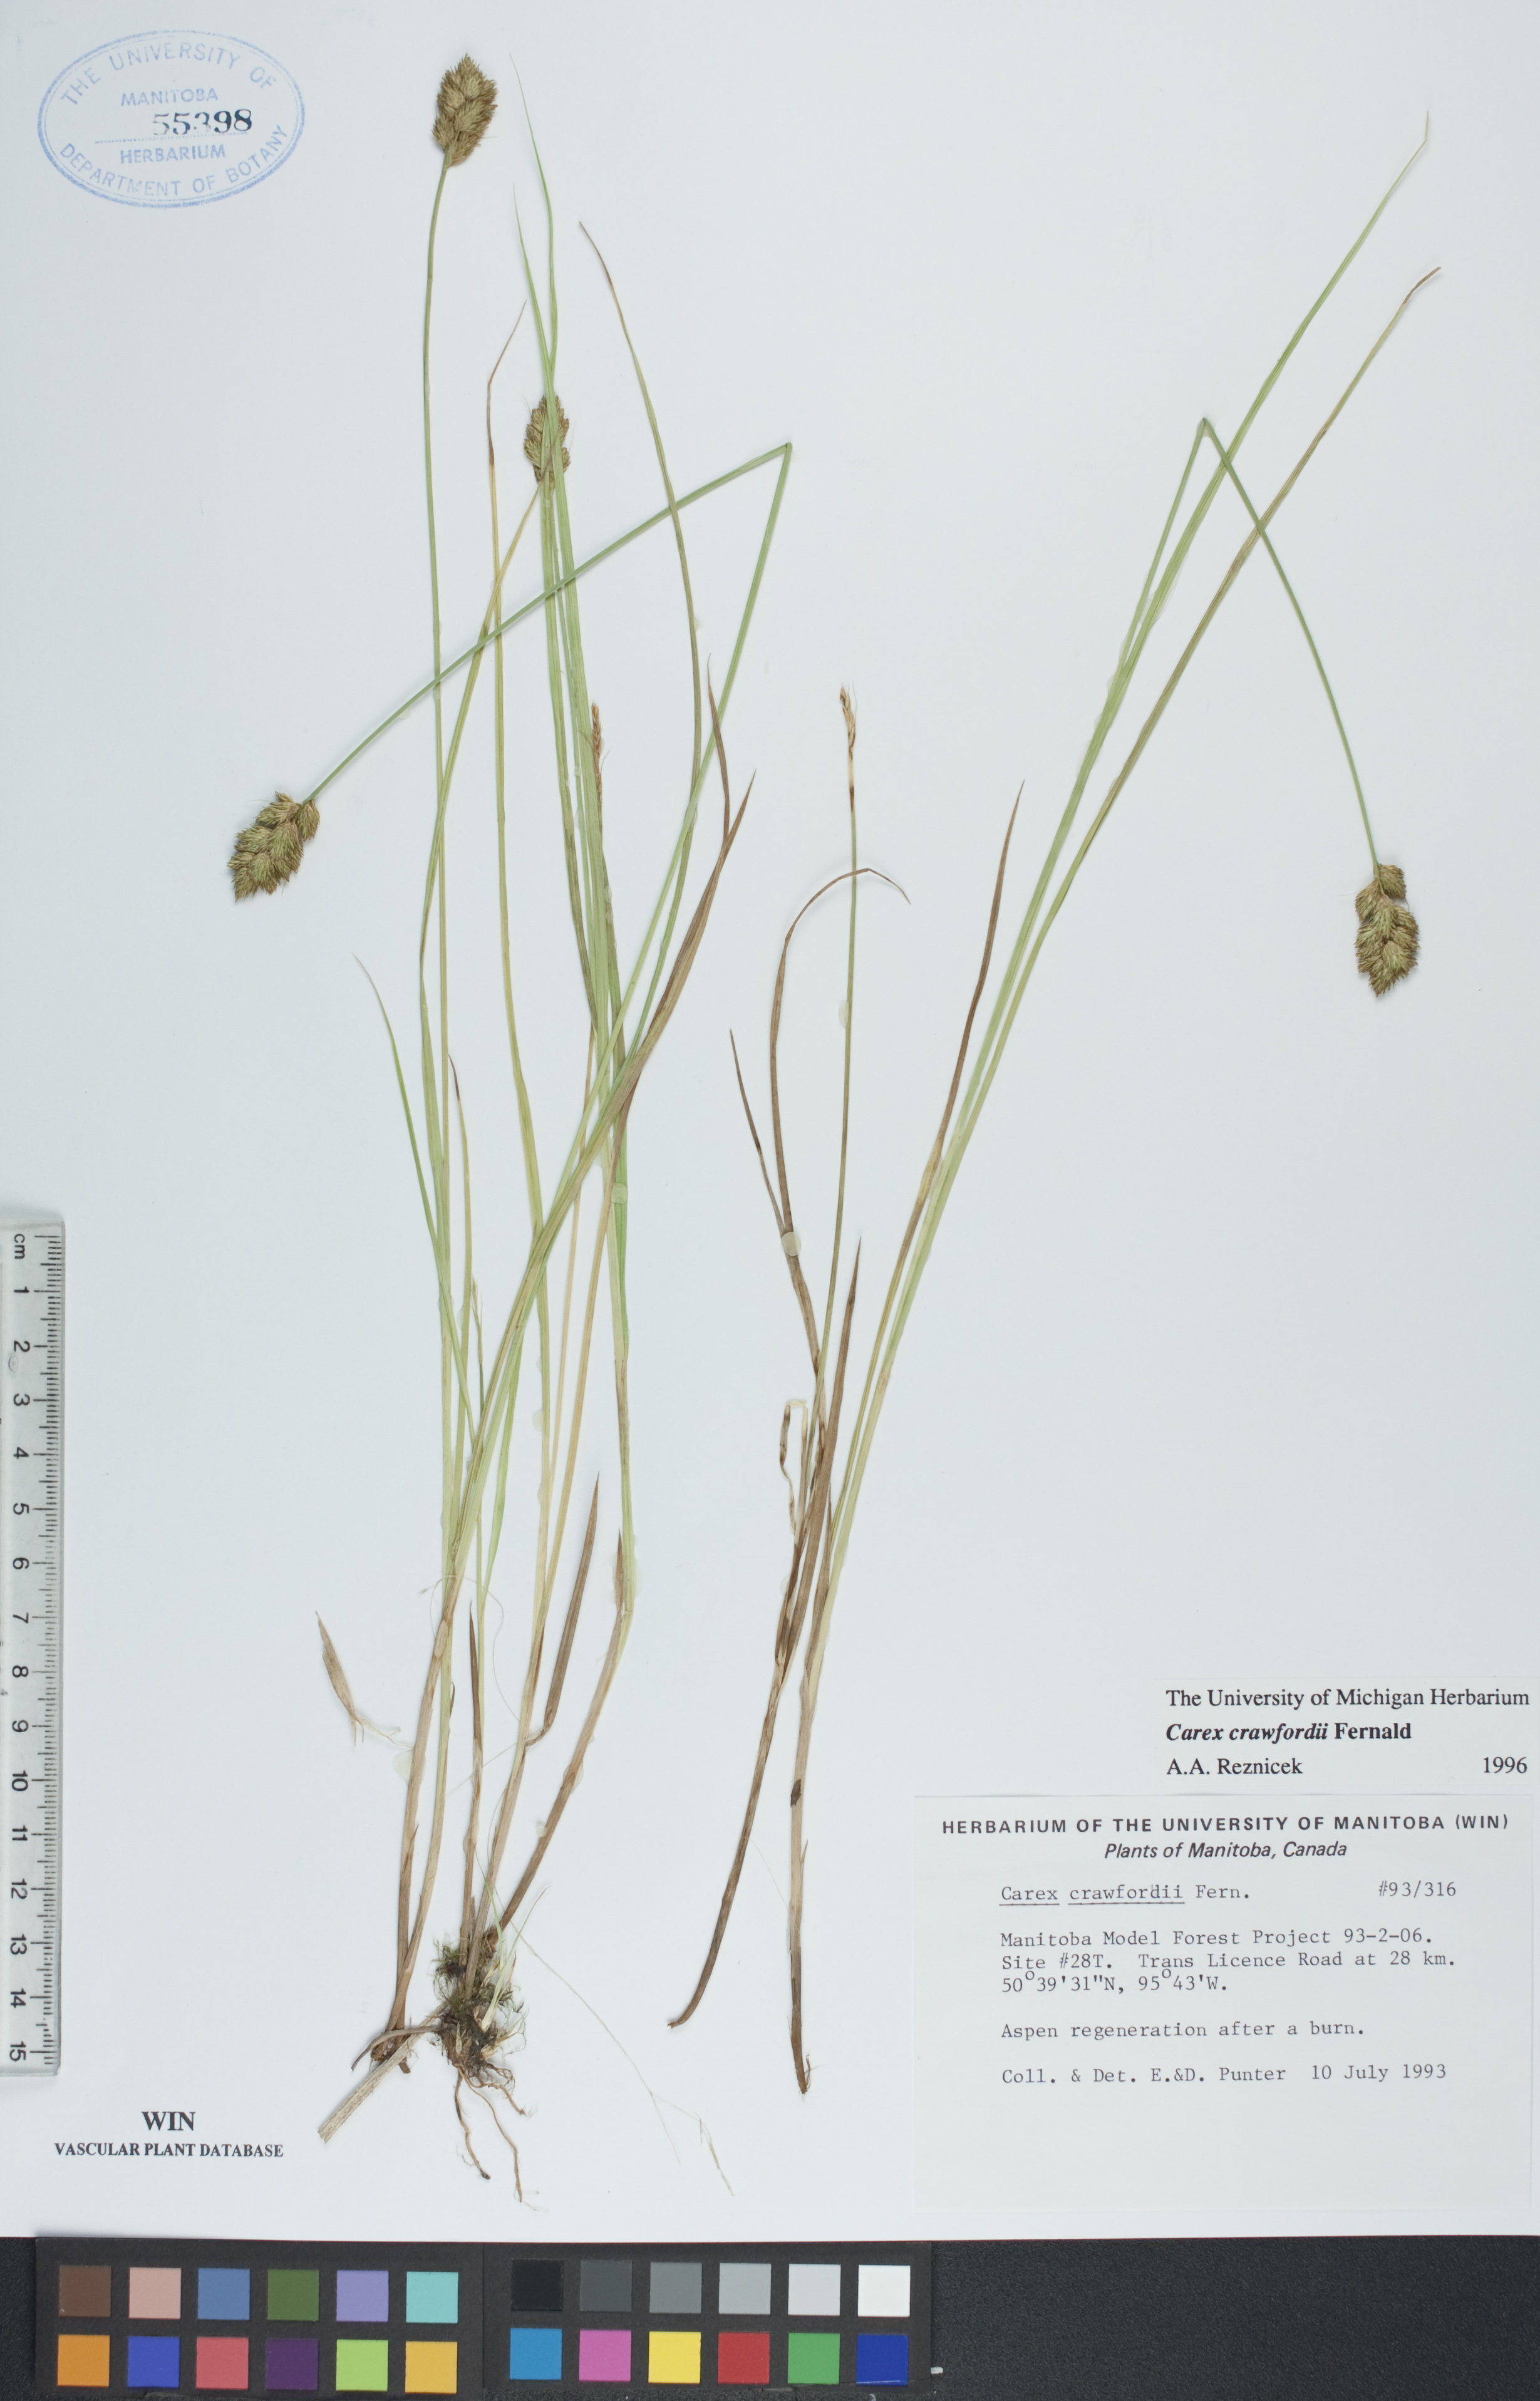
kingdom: Plantae
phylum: Tracheophyta
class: Liliopsida
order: Poales
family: Cyperaceae
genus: Carex
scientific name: Carex crawfordii
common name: Crawford's sedge
